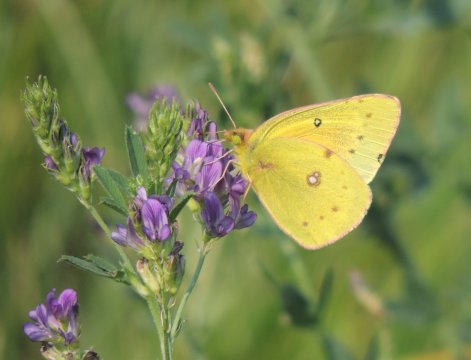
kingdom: Animalia
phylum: Arthropoda
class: Insecta
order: Lepidoptera
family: Pieridae
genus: Colias
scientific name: Colias eurytheme
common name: Orange Sulphur
